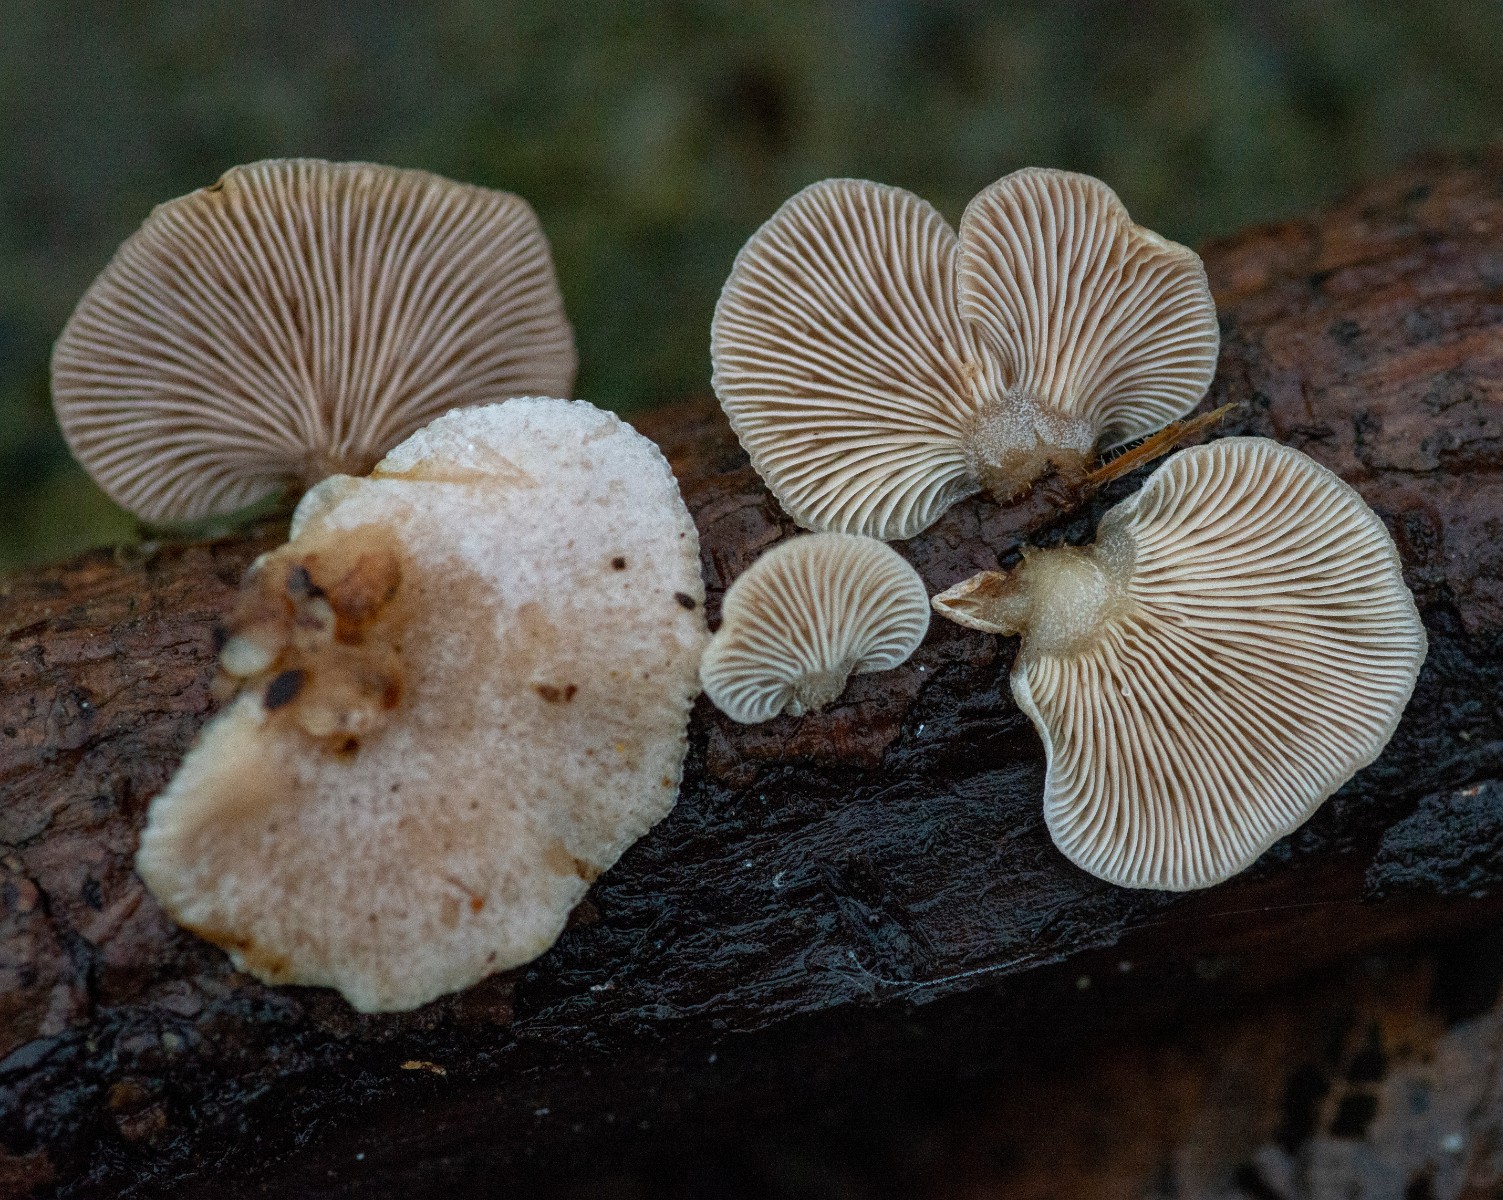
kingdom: Fungi
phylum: Basidiomycota
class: Agaricomycetes
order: Agaricales
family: Mycenaceae
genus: Panellus
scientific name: Panellus mitis
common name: mild epaulethat
